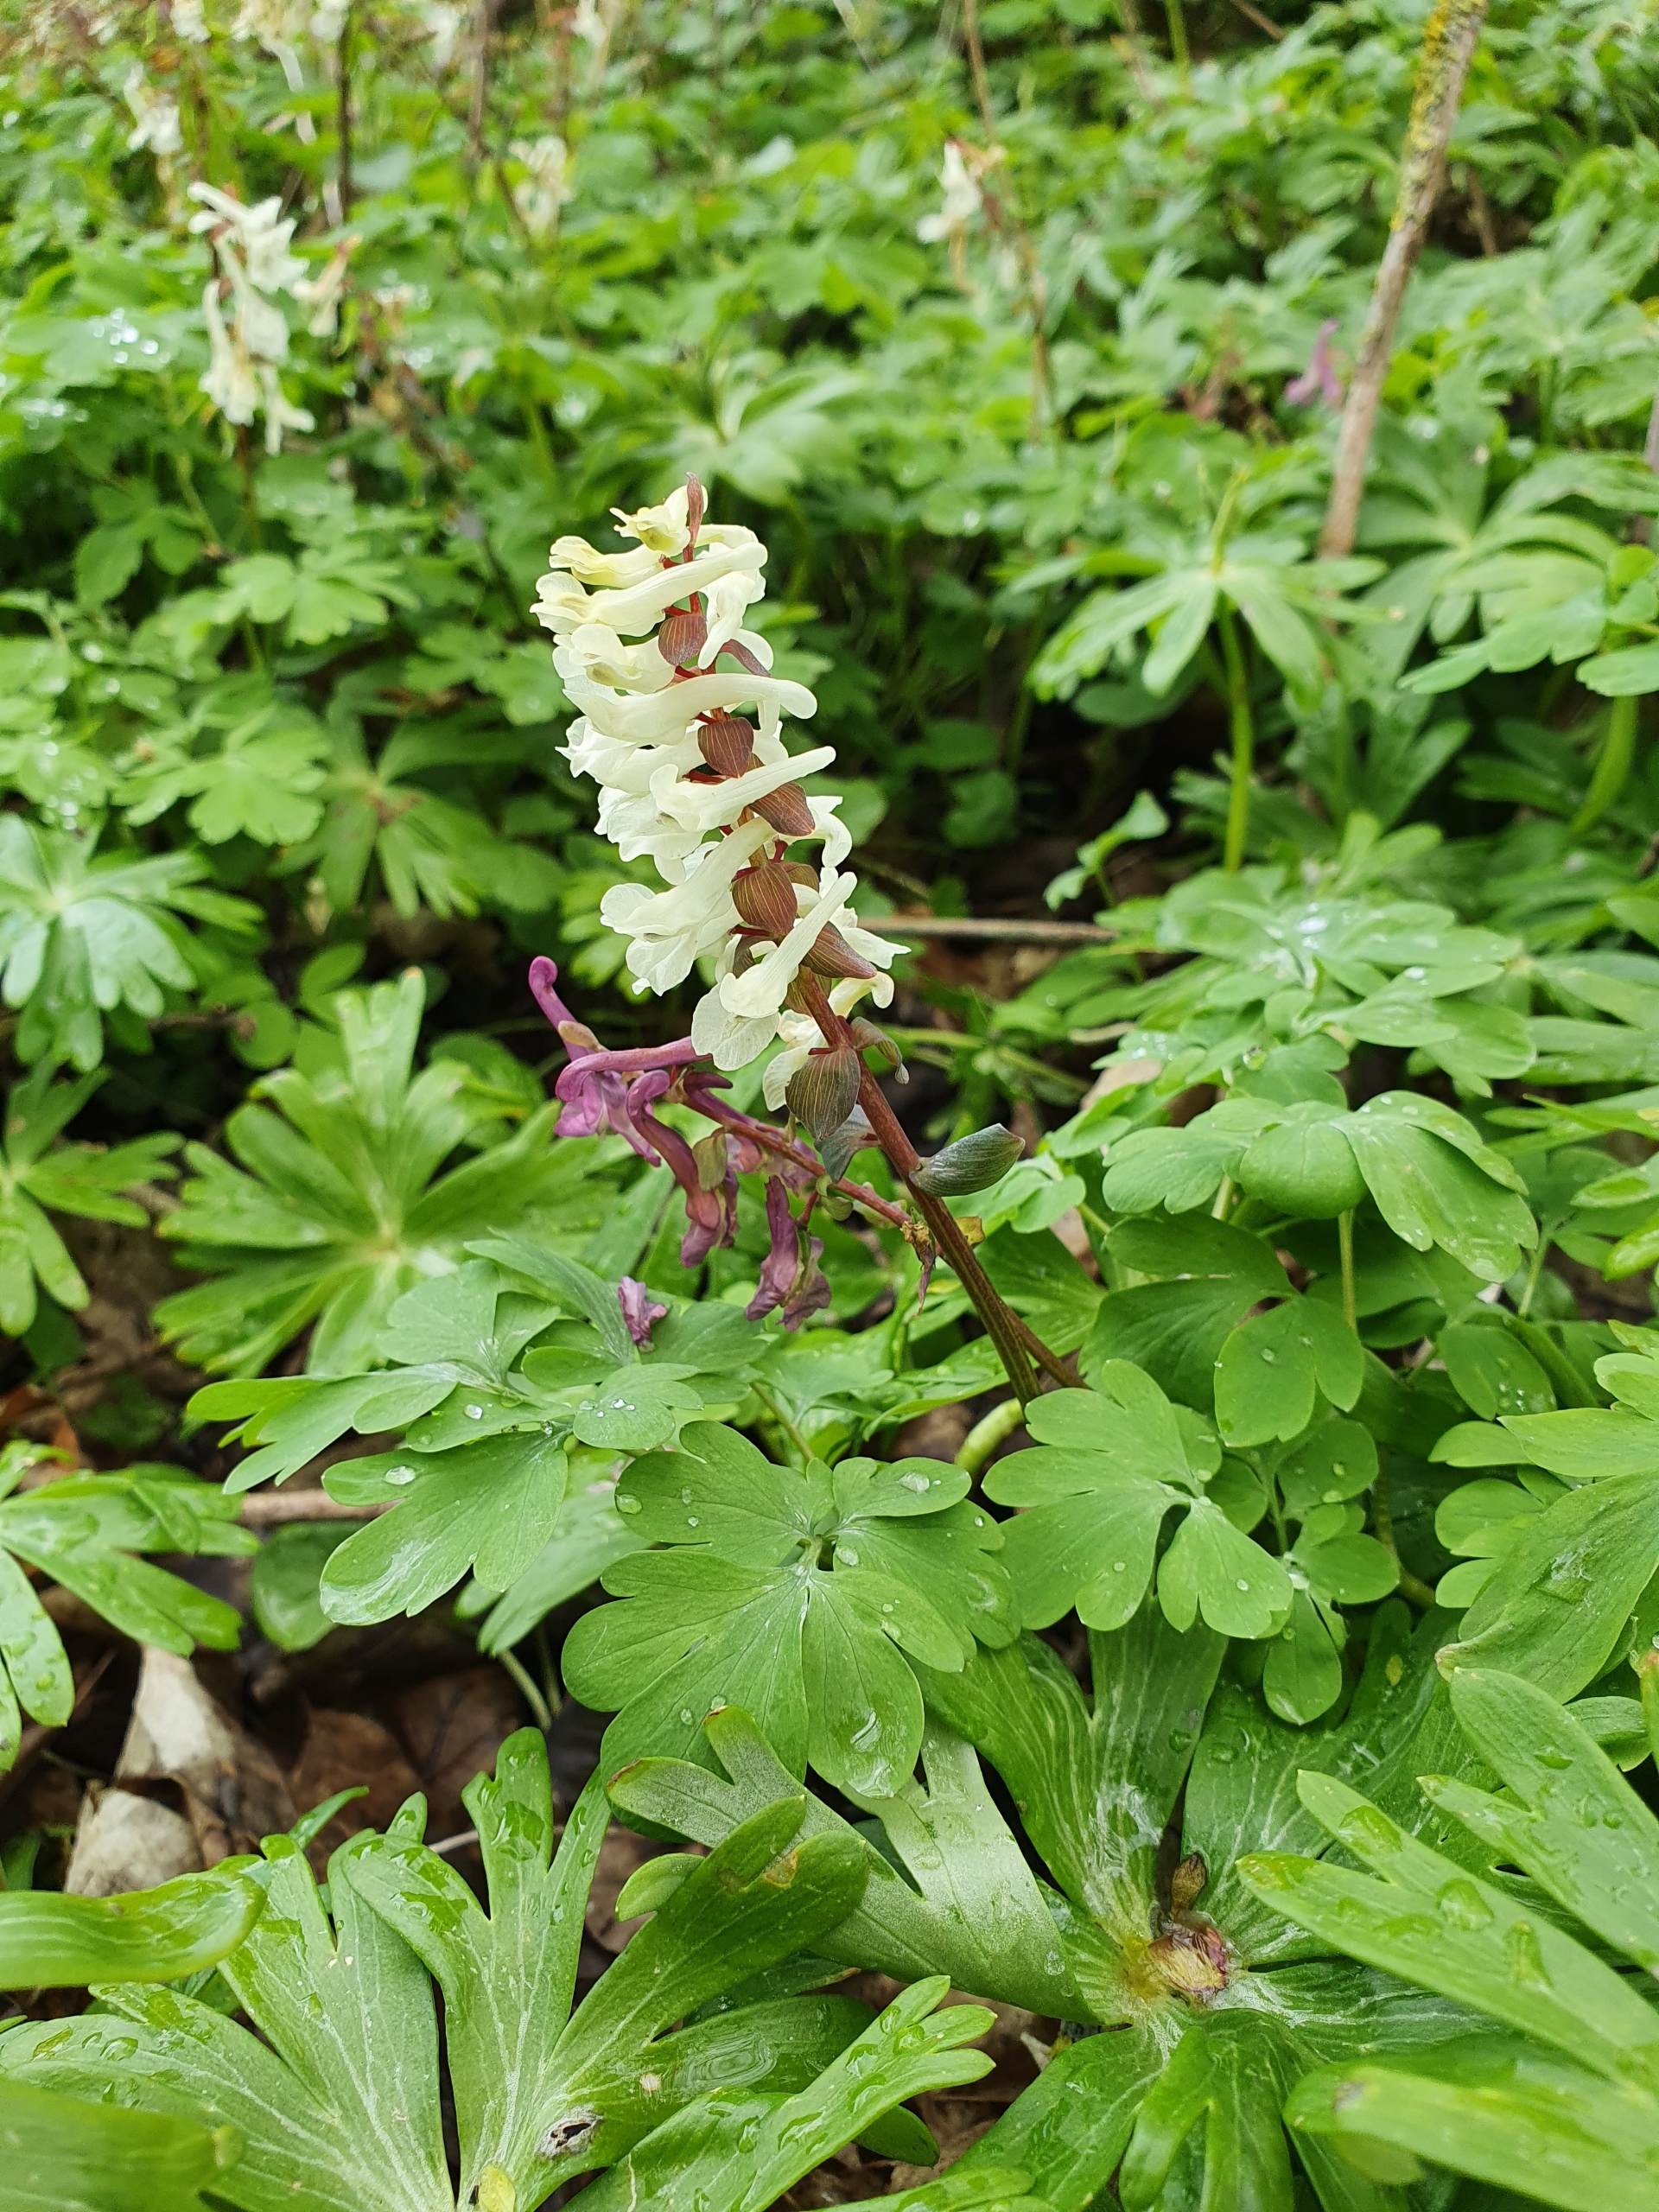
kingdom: Plantae
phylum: Tracheophyta
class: Magnoliopsida
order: Ranunculales
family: Papaveraceae
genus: Corydalis
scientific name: Corydalis cava
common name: Hulrodet lærkespore
